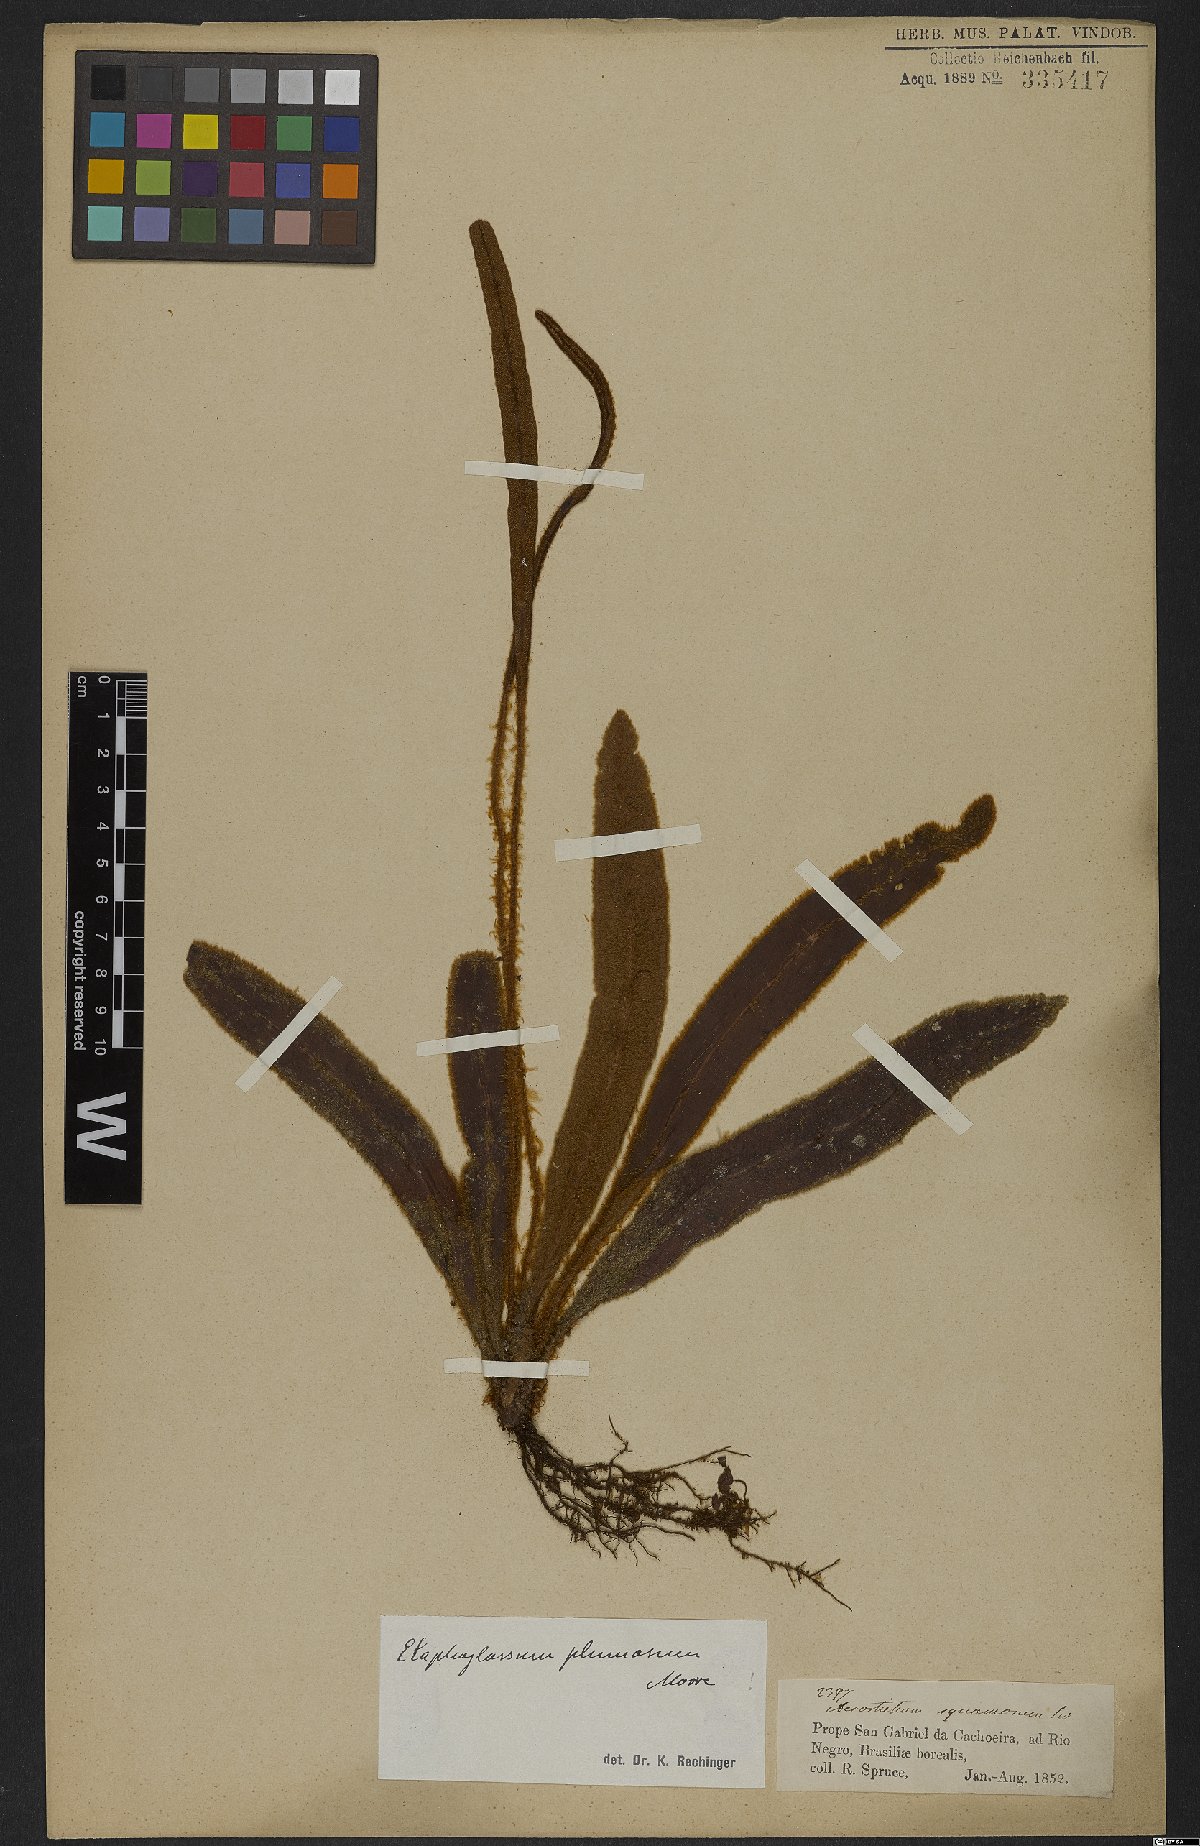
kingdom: Plantae
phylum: Tracheophyta
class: Polypodiopsida
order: Polypodiales
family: Dryopteridaceae
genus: Elaphoglossum
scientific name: Elaphoglossum plumosum
